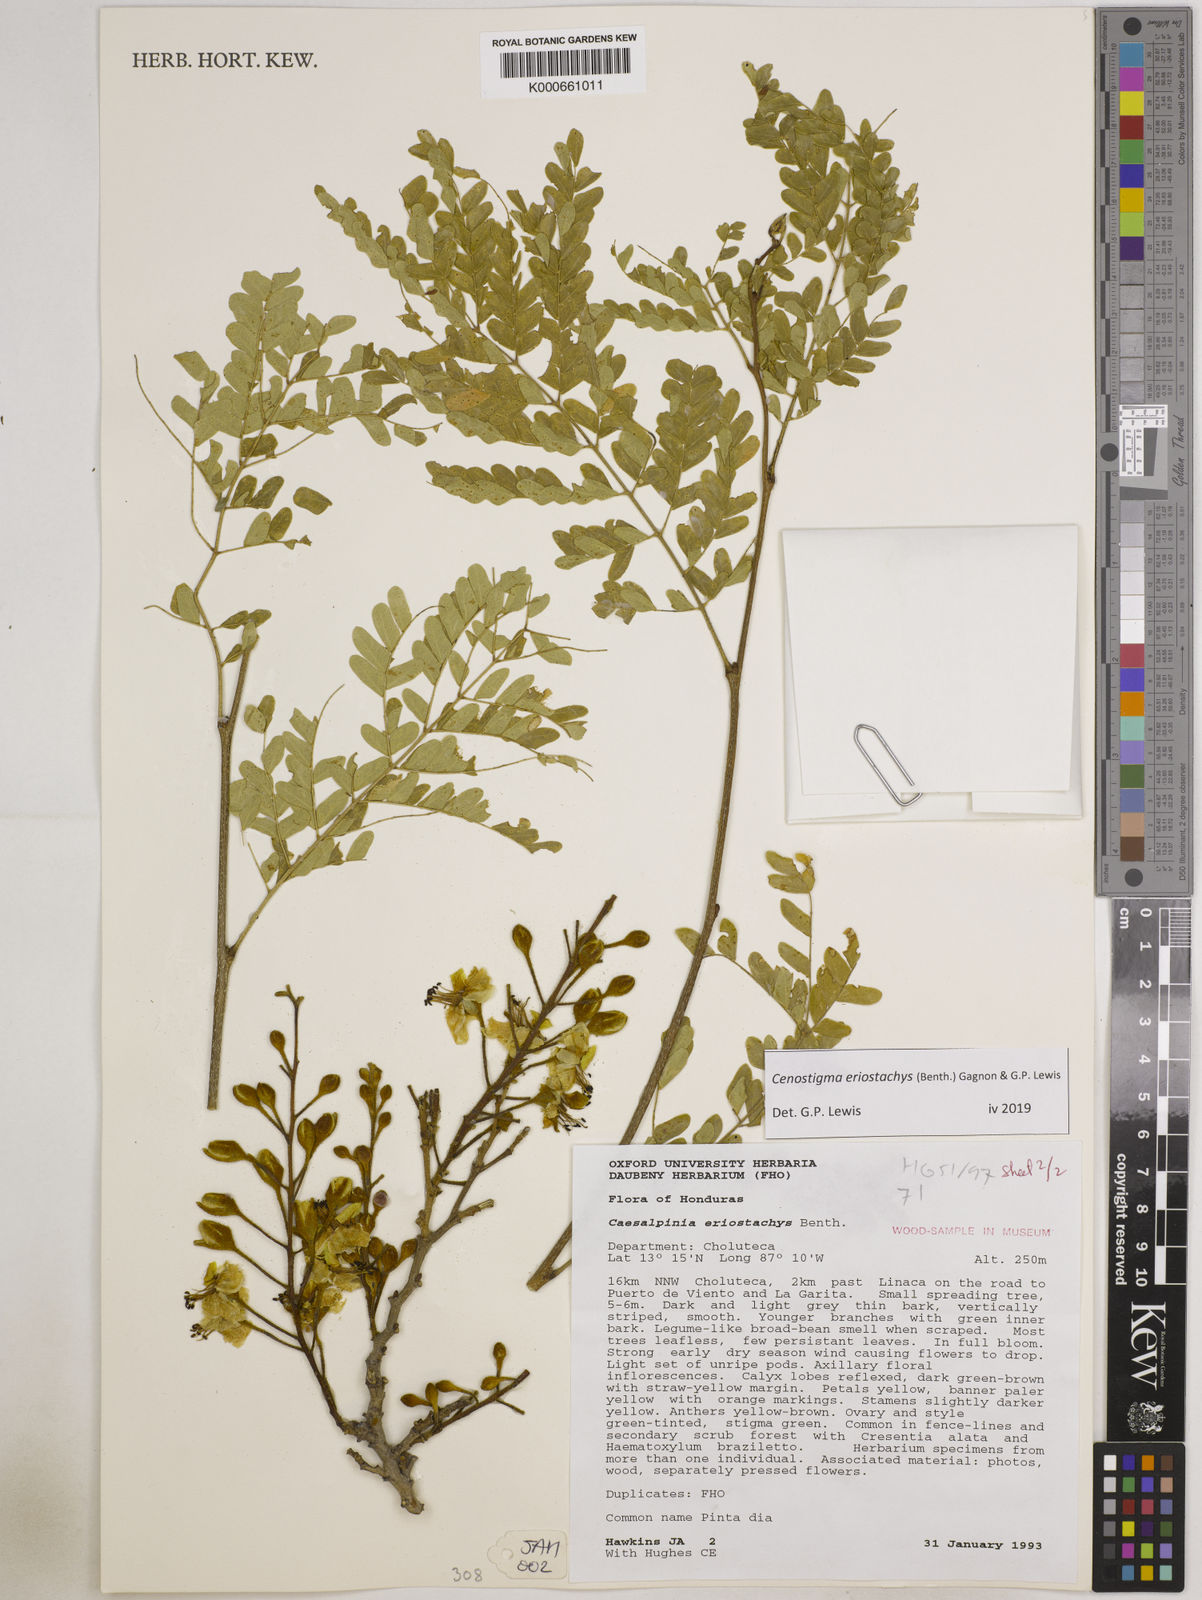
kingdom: Plantae
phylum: Tracheophyta
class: Magnoliopsida
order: Fabales
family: Fabaceae
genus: Cenostigma
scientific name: Cenostigma eriostachys
